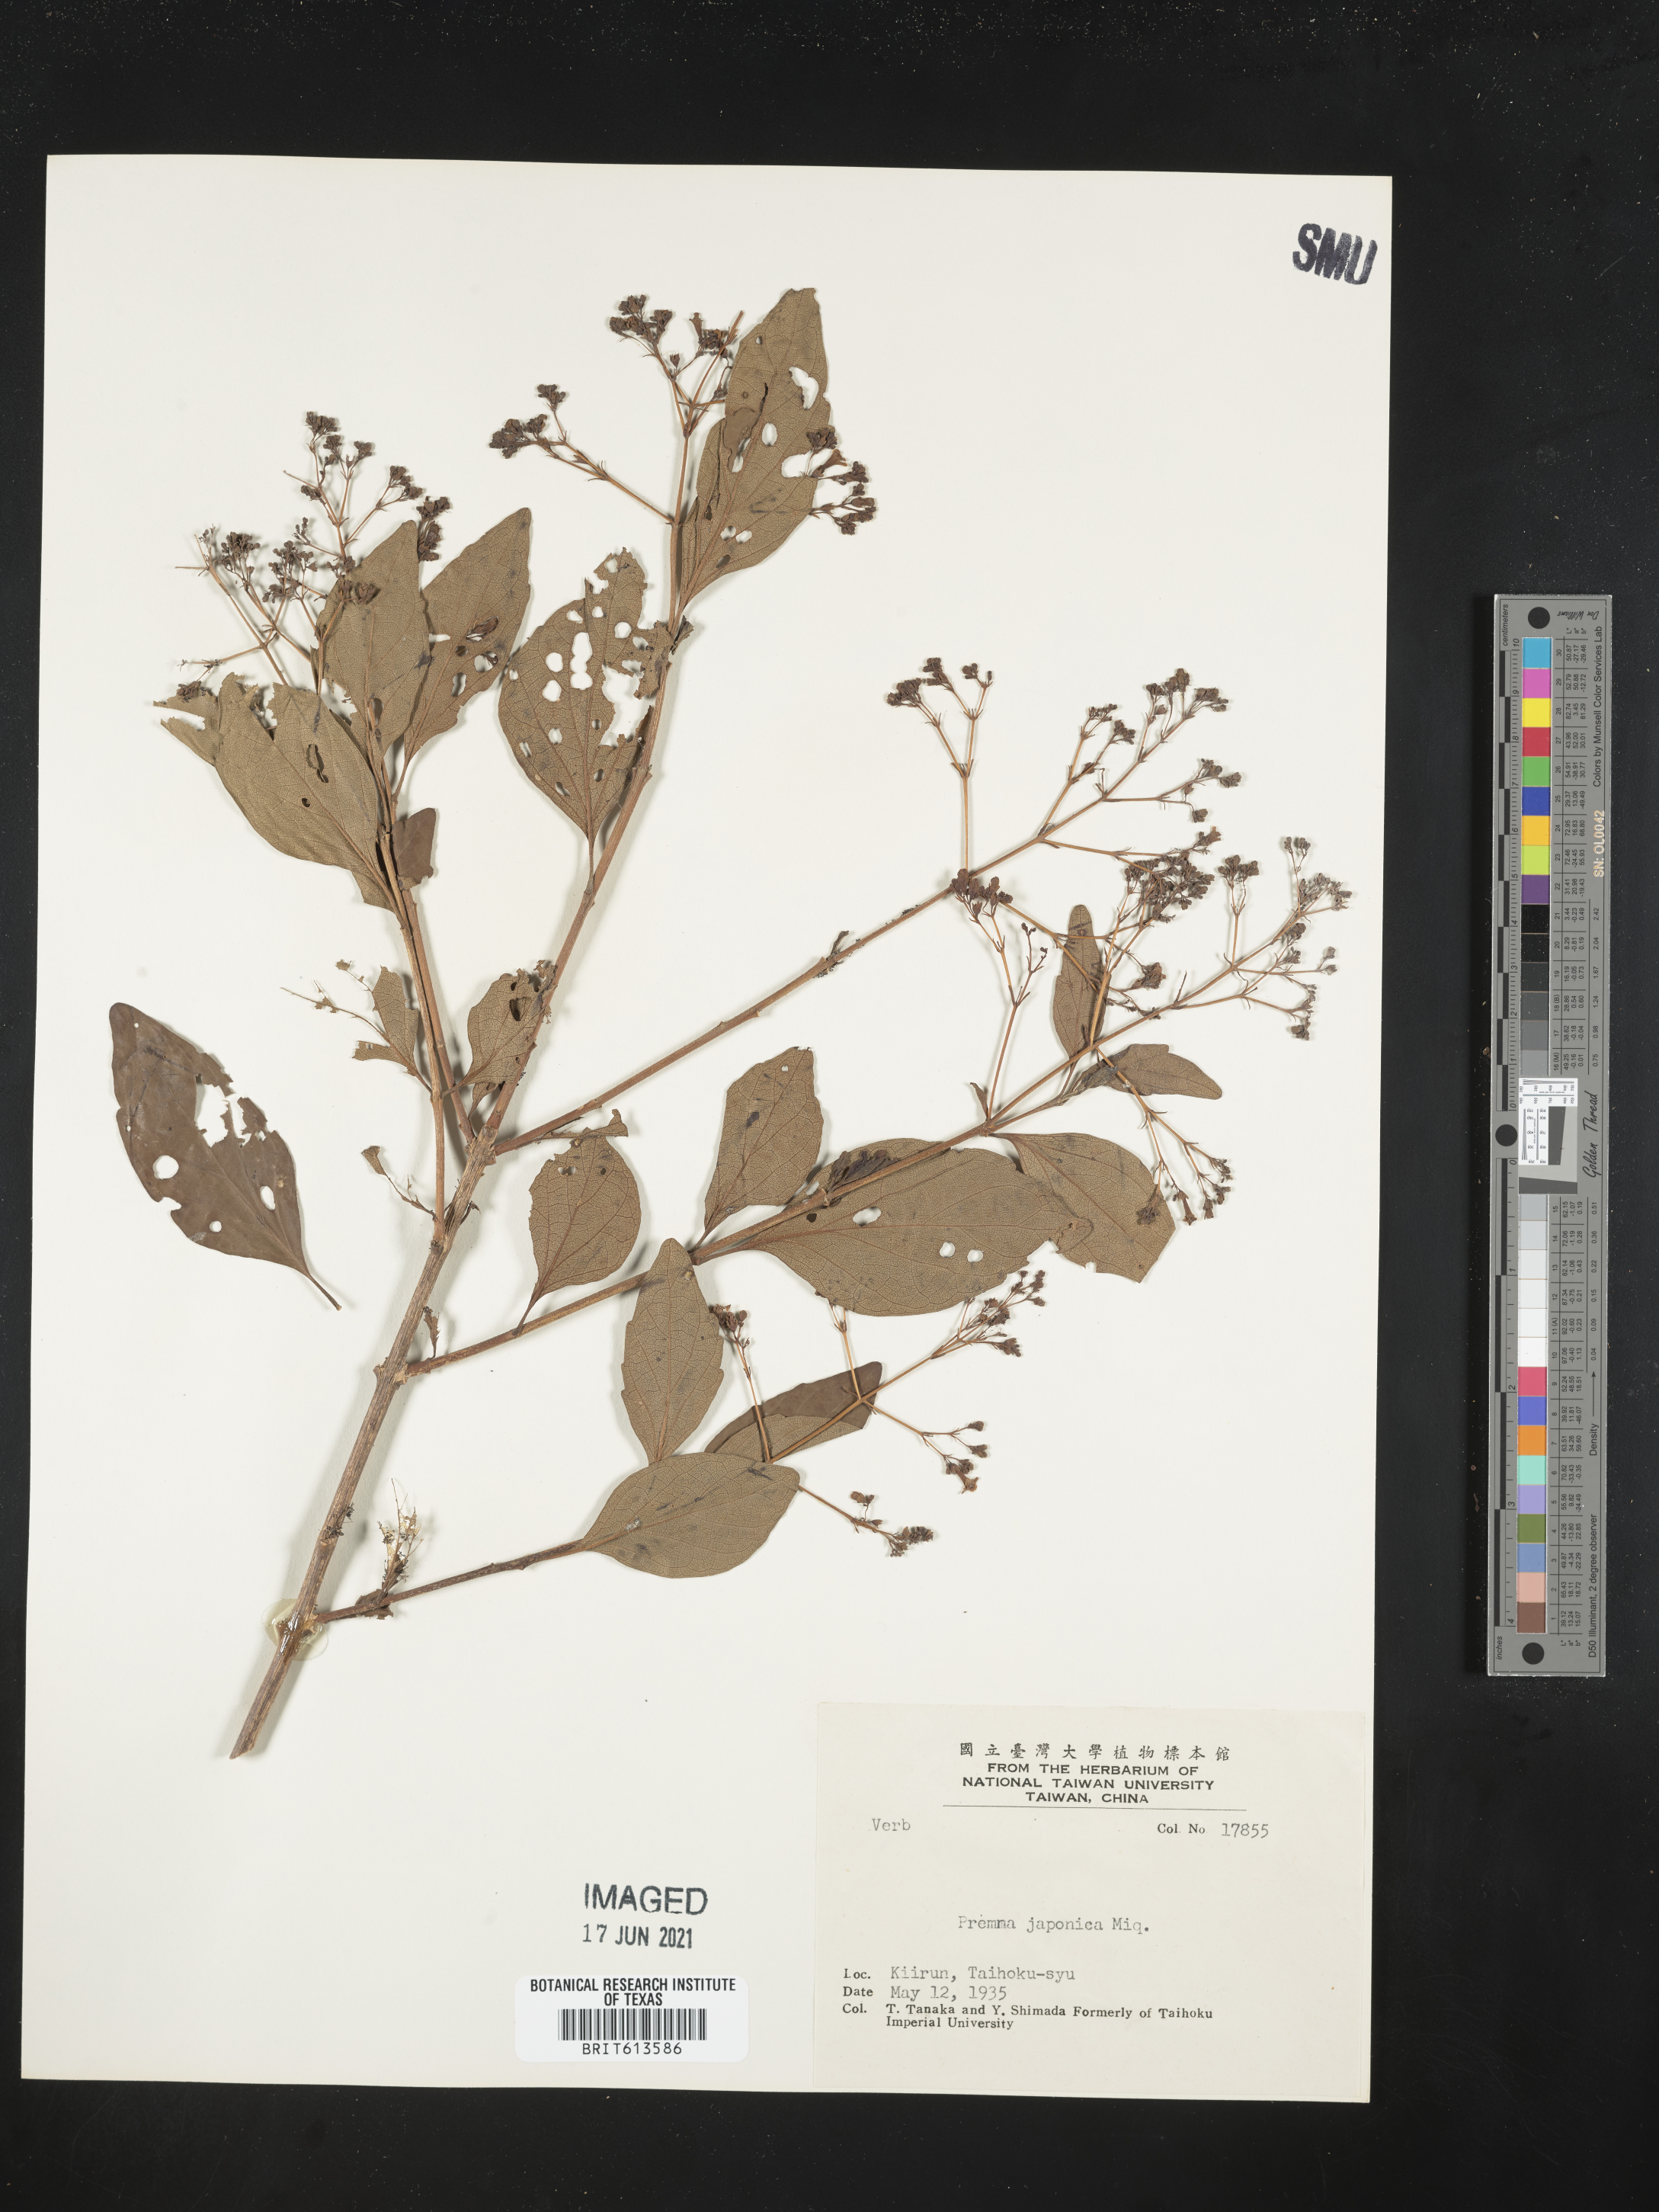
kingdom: Plantae
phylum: Tracheophyta
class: Magnoliopsida
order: Lamiales
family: Lamiaceae
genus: Premna
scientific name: Premna microphylla
